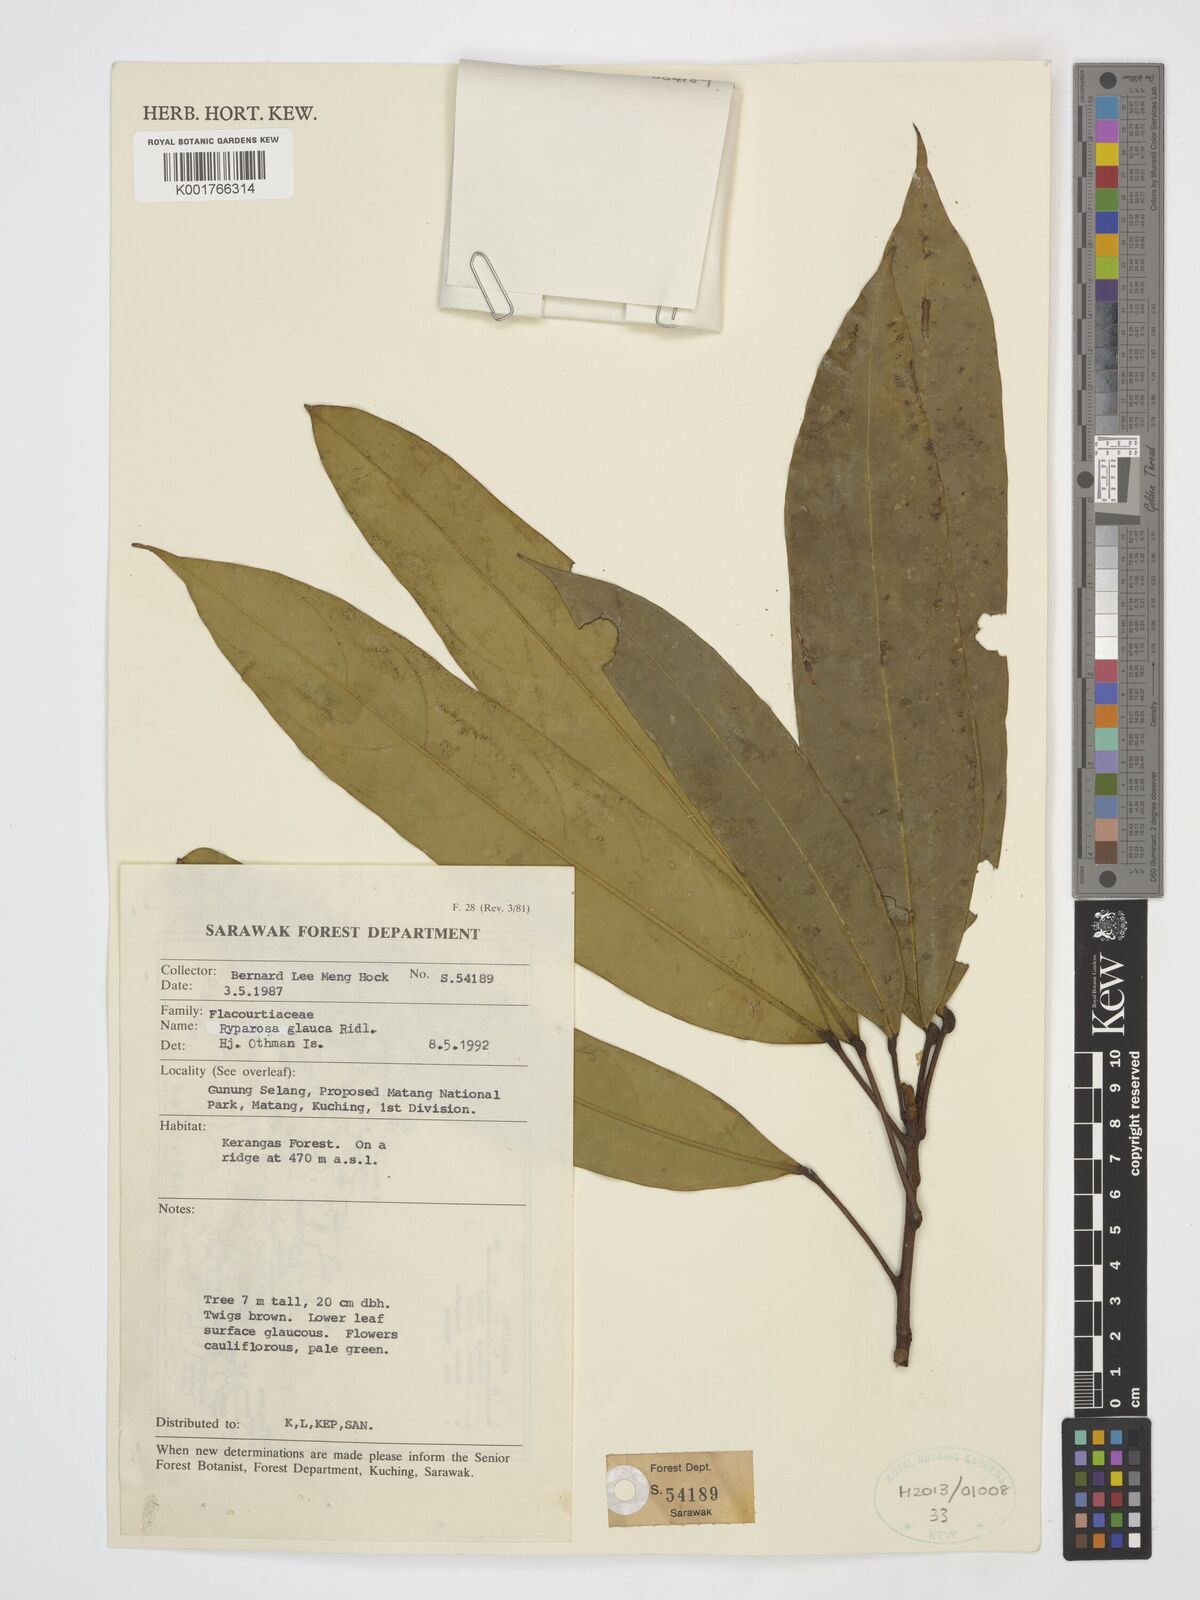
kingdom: Plantae
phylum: Tracheophyta
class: Magnoliopsida
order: Malpighiales
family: Achariaceae
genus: Ryparosa
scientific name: Ryparosa glauca
